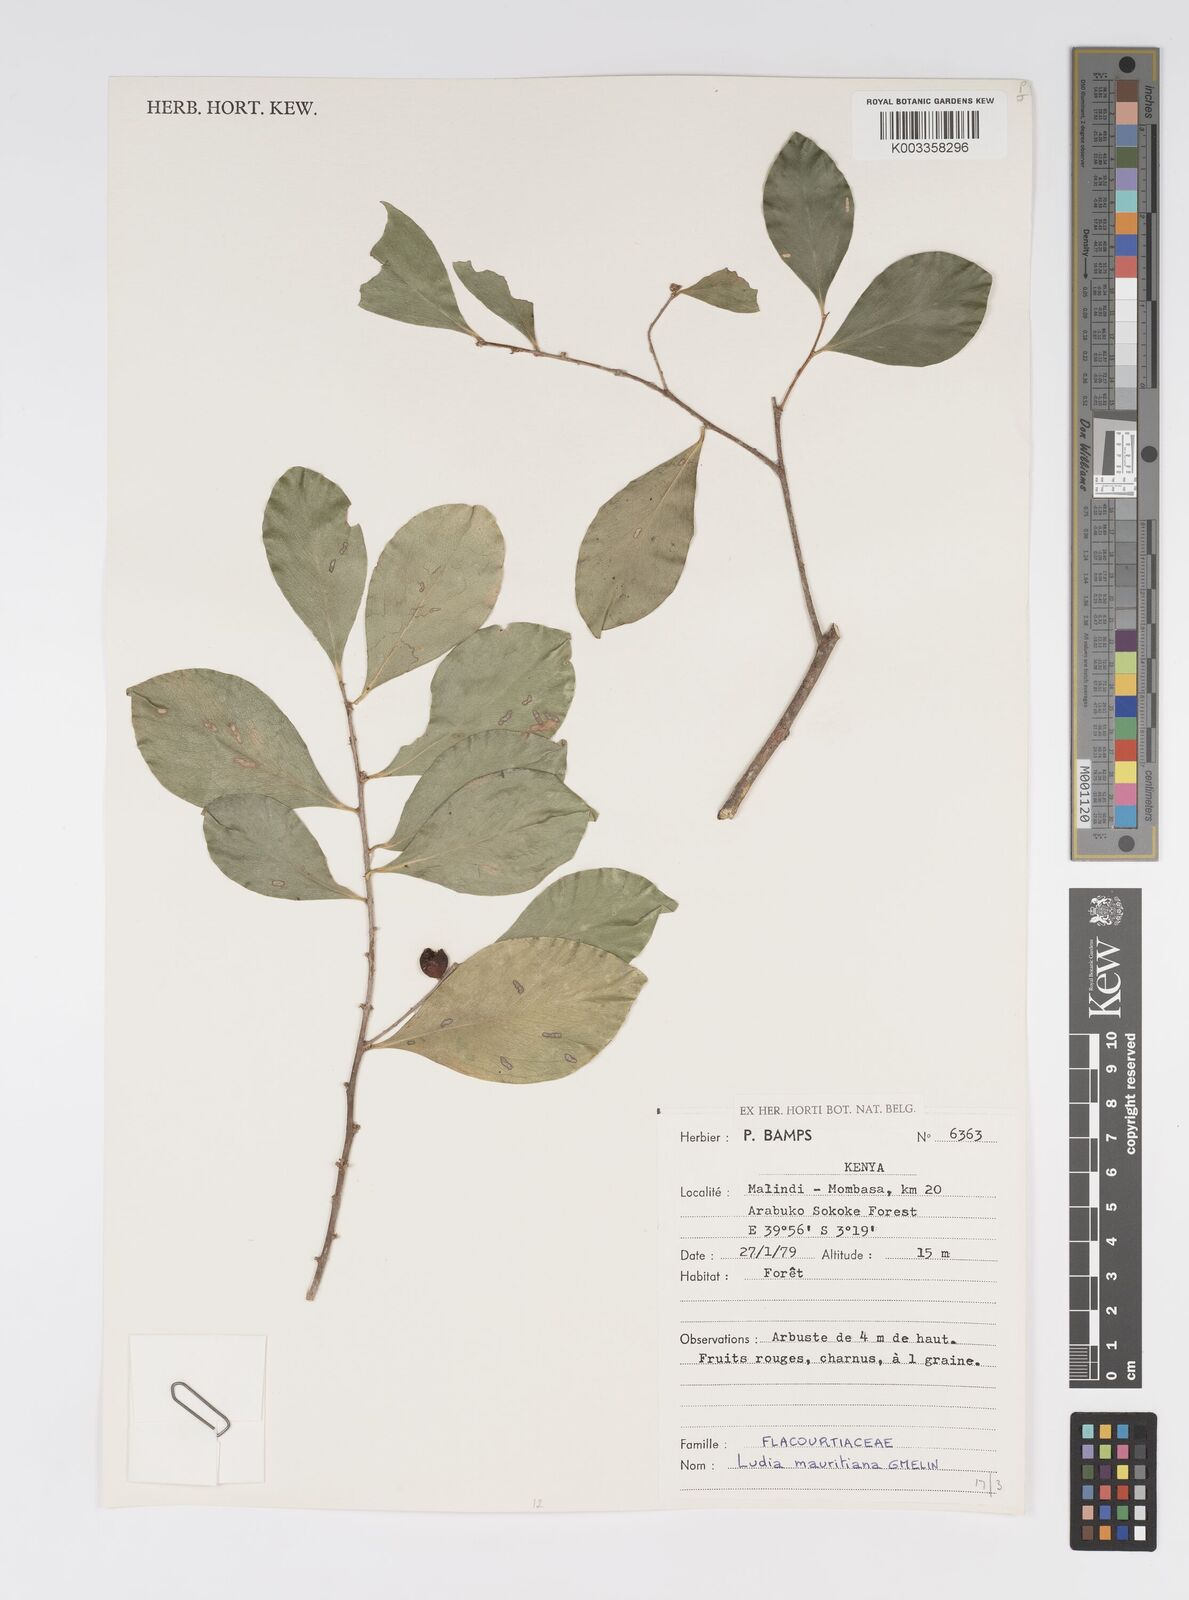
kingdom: Plantae
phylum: Tracheophyta
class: Magnoliopsida
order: Malpighiales
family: Salicaceae
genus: Ludia
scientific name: Ludia mauritiana
